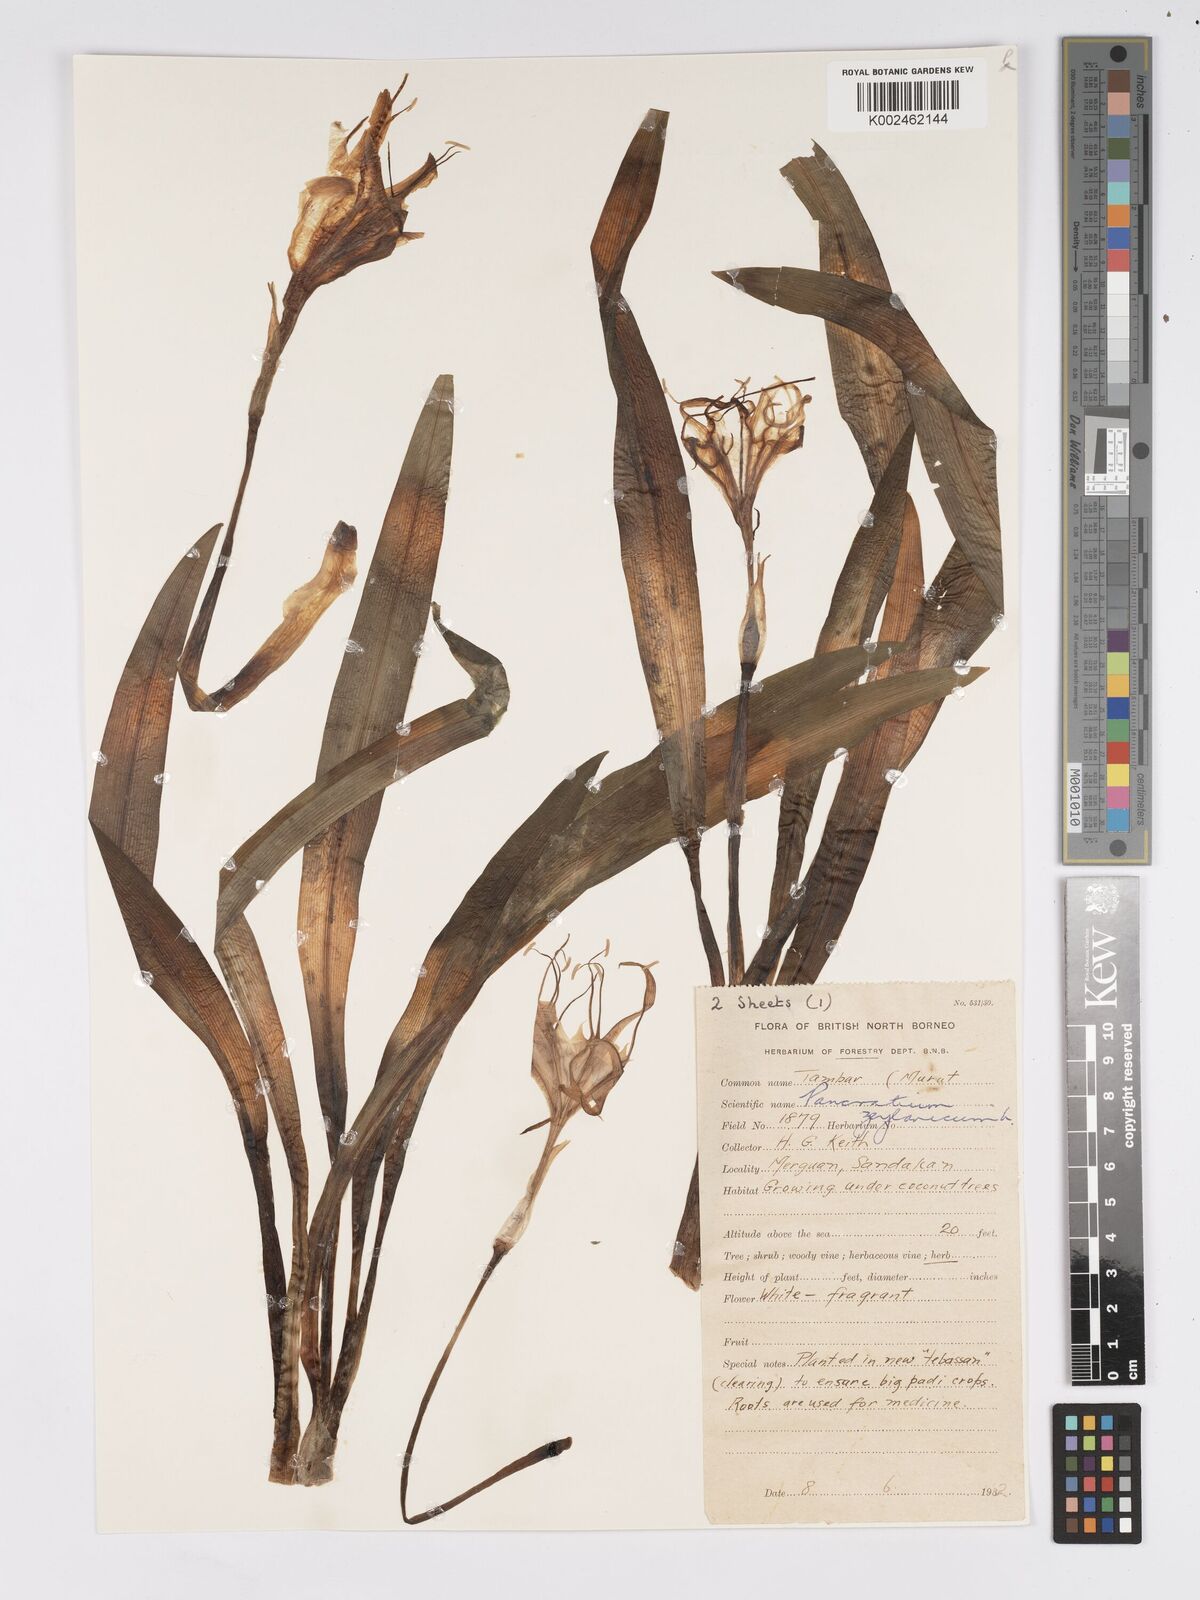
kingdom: Plantae
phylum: Tracheophyta
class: Liliopsida
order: Asparagales
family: Amaryllidaceae
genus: Pancratium
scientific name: Pancratium zeylanicum
